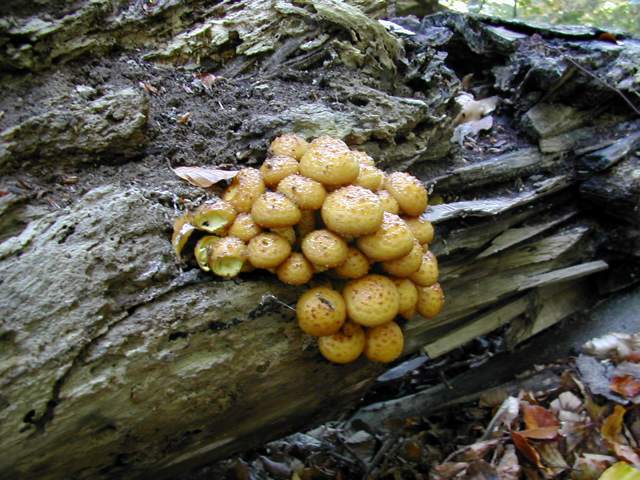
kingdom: Fungi
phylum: Basidiomycota
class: Agaricomycetes
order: Agaricales
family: Strophariaceae
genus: Pholiota
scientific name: Pholiota adiposa
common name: højtsiddende skælhat
